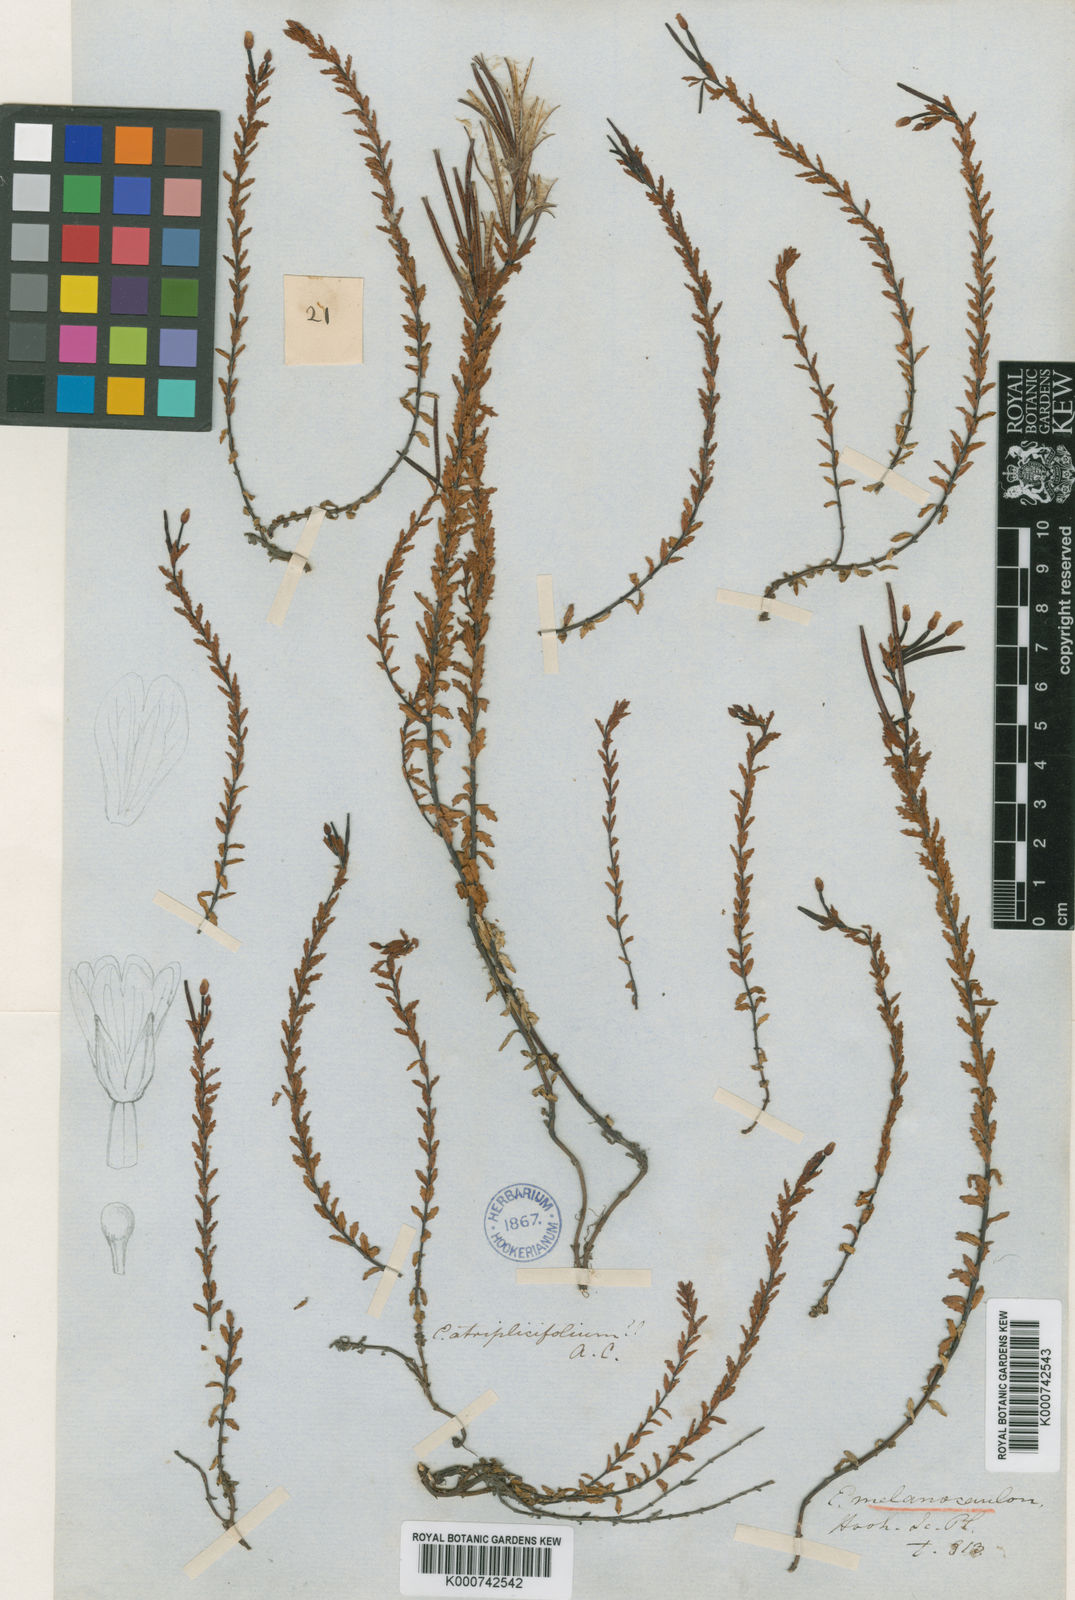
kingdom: Plantae
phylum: Tracheophyta
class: Magnoliopsida
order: Myrtales
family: Onagraceae
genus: Epilobium
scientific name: Epilobium melanocaulon
